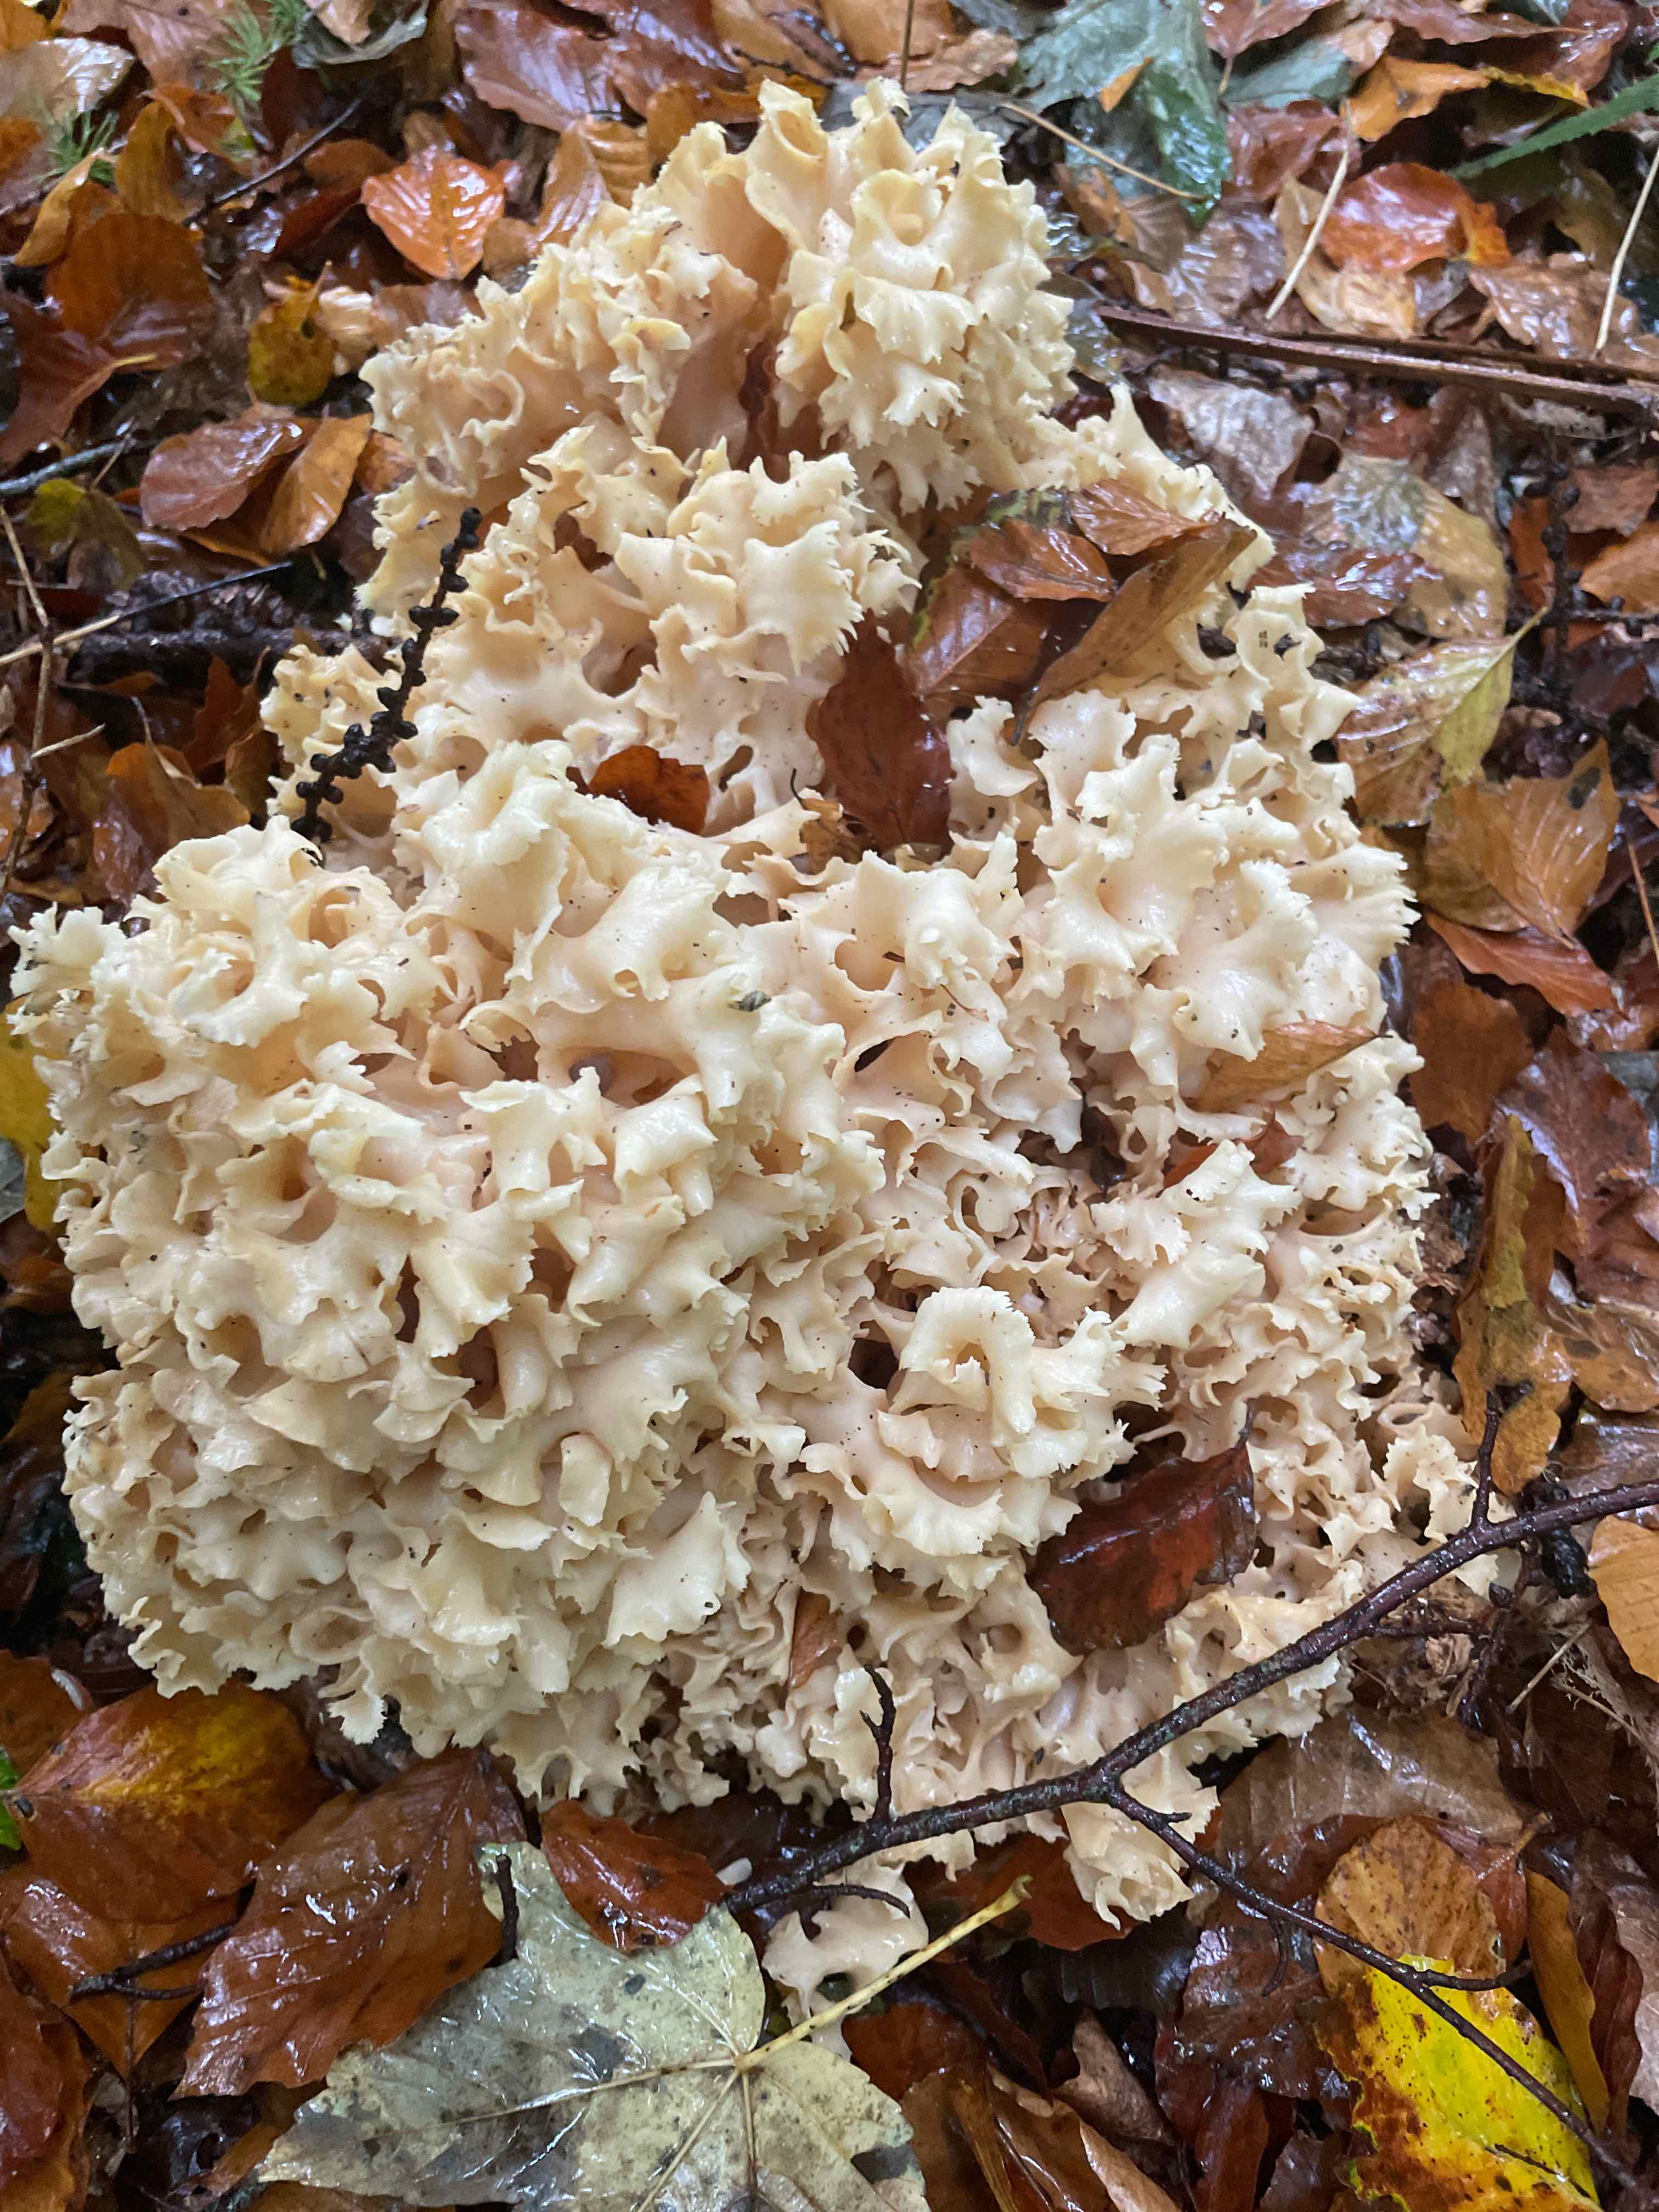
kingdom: Fungi
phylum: Basidiomycota
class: Agaricomycetes
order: Polyporales
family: Sparassidaceae
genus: Sparassis
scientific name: Sparassis crispa
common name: kruset blomkålssvamp
